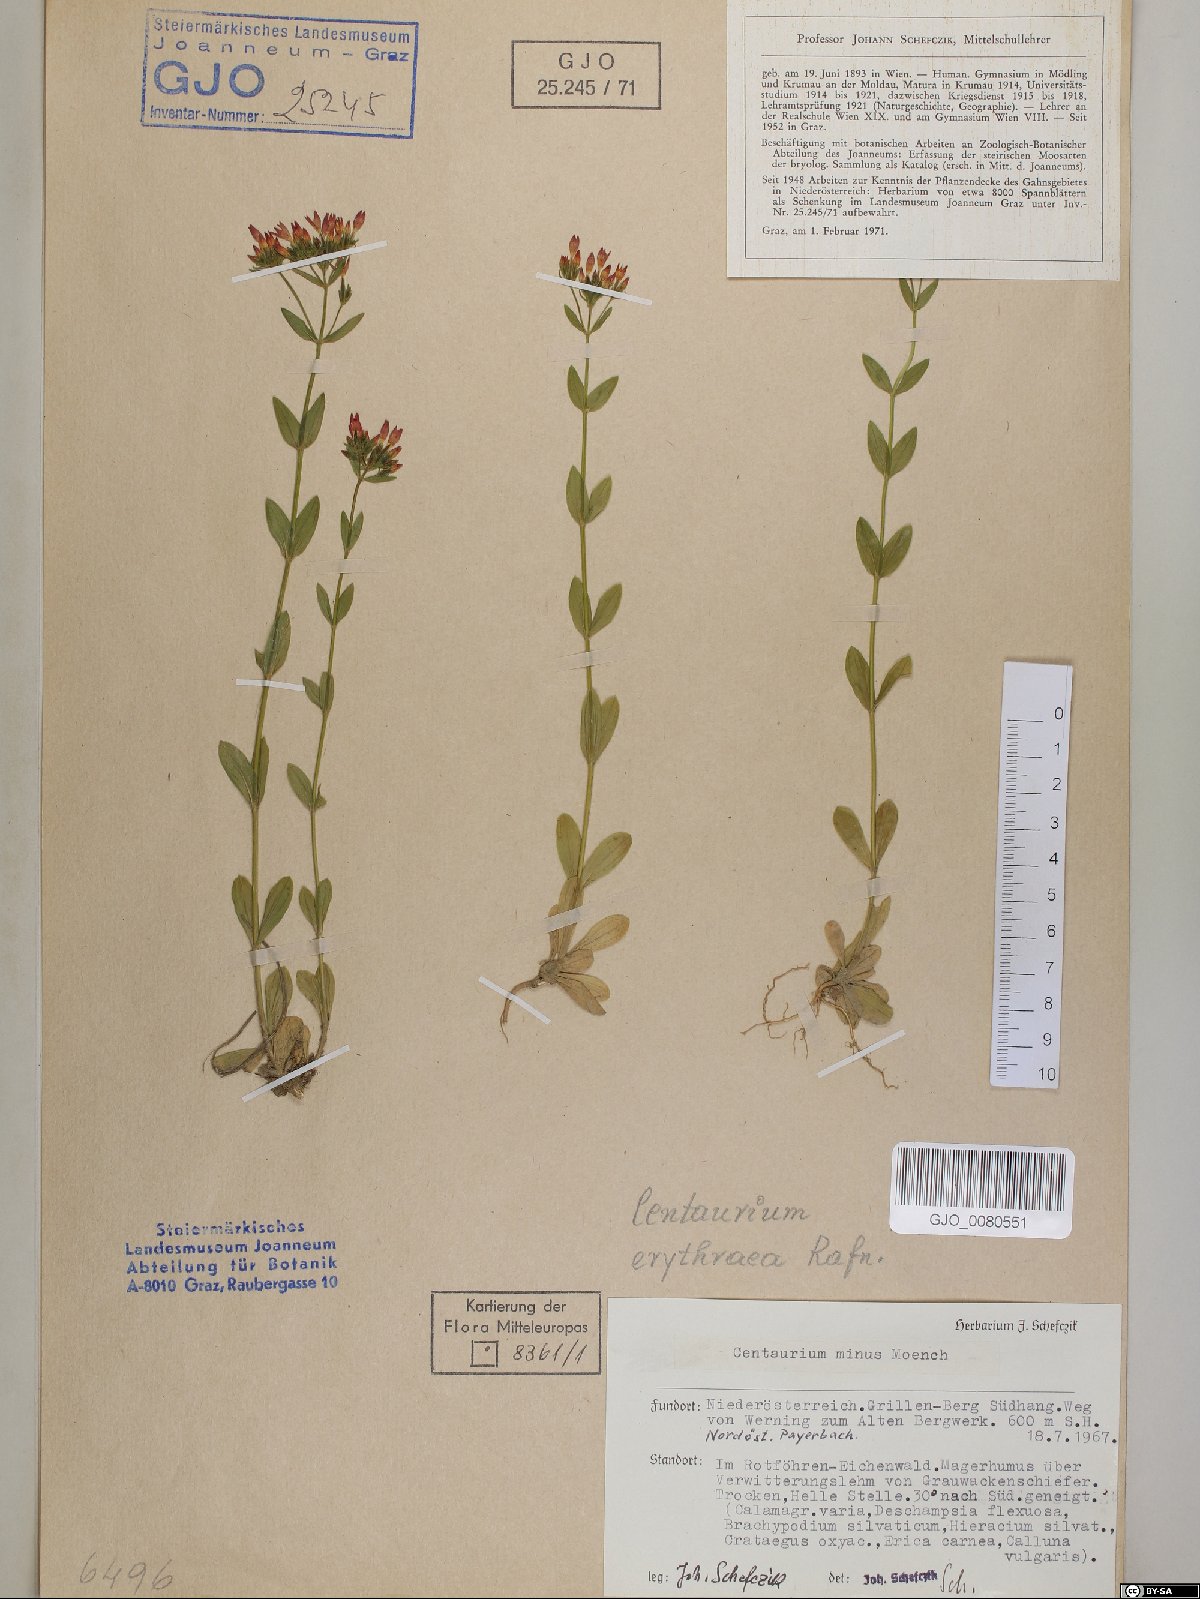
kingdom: Plantae
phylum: Tracheophyta
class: Magnoliopsida
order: Gentianales
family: Gentianaceae
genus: Centaurium
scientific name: Centaurium erythraea
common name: Common centaury
